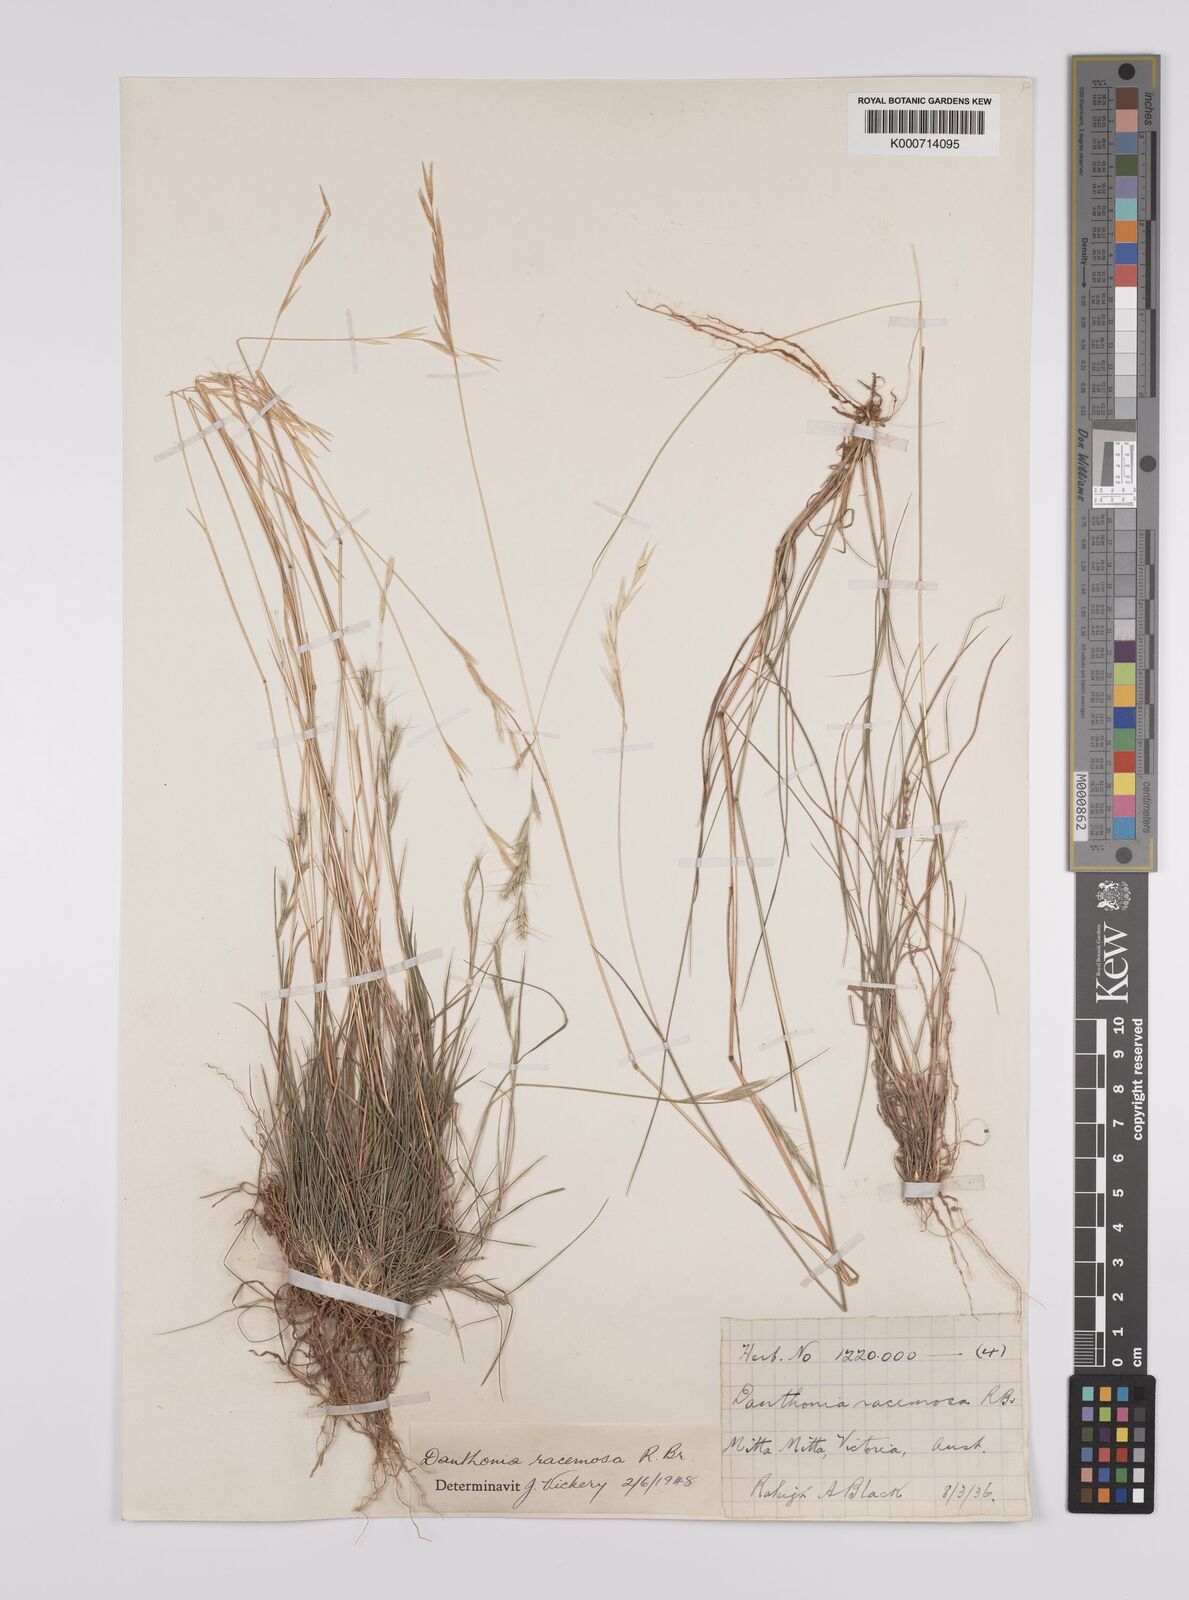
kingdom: Plantae
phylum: Tracheophyta
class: Liliopsida
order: Poales
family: Poaceae
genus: Rytidosperma
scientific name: Rytidosperma racemosum
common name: Wallaby-grass
